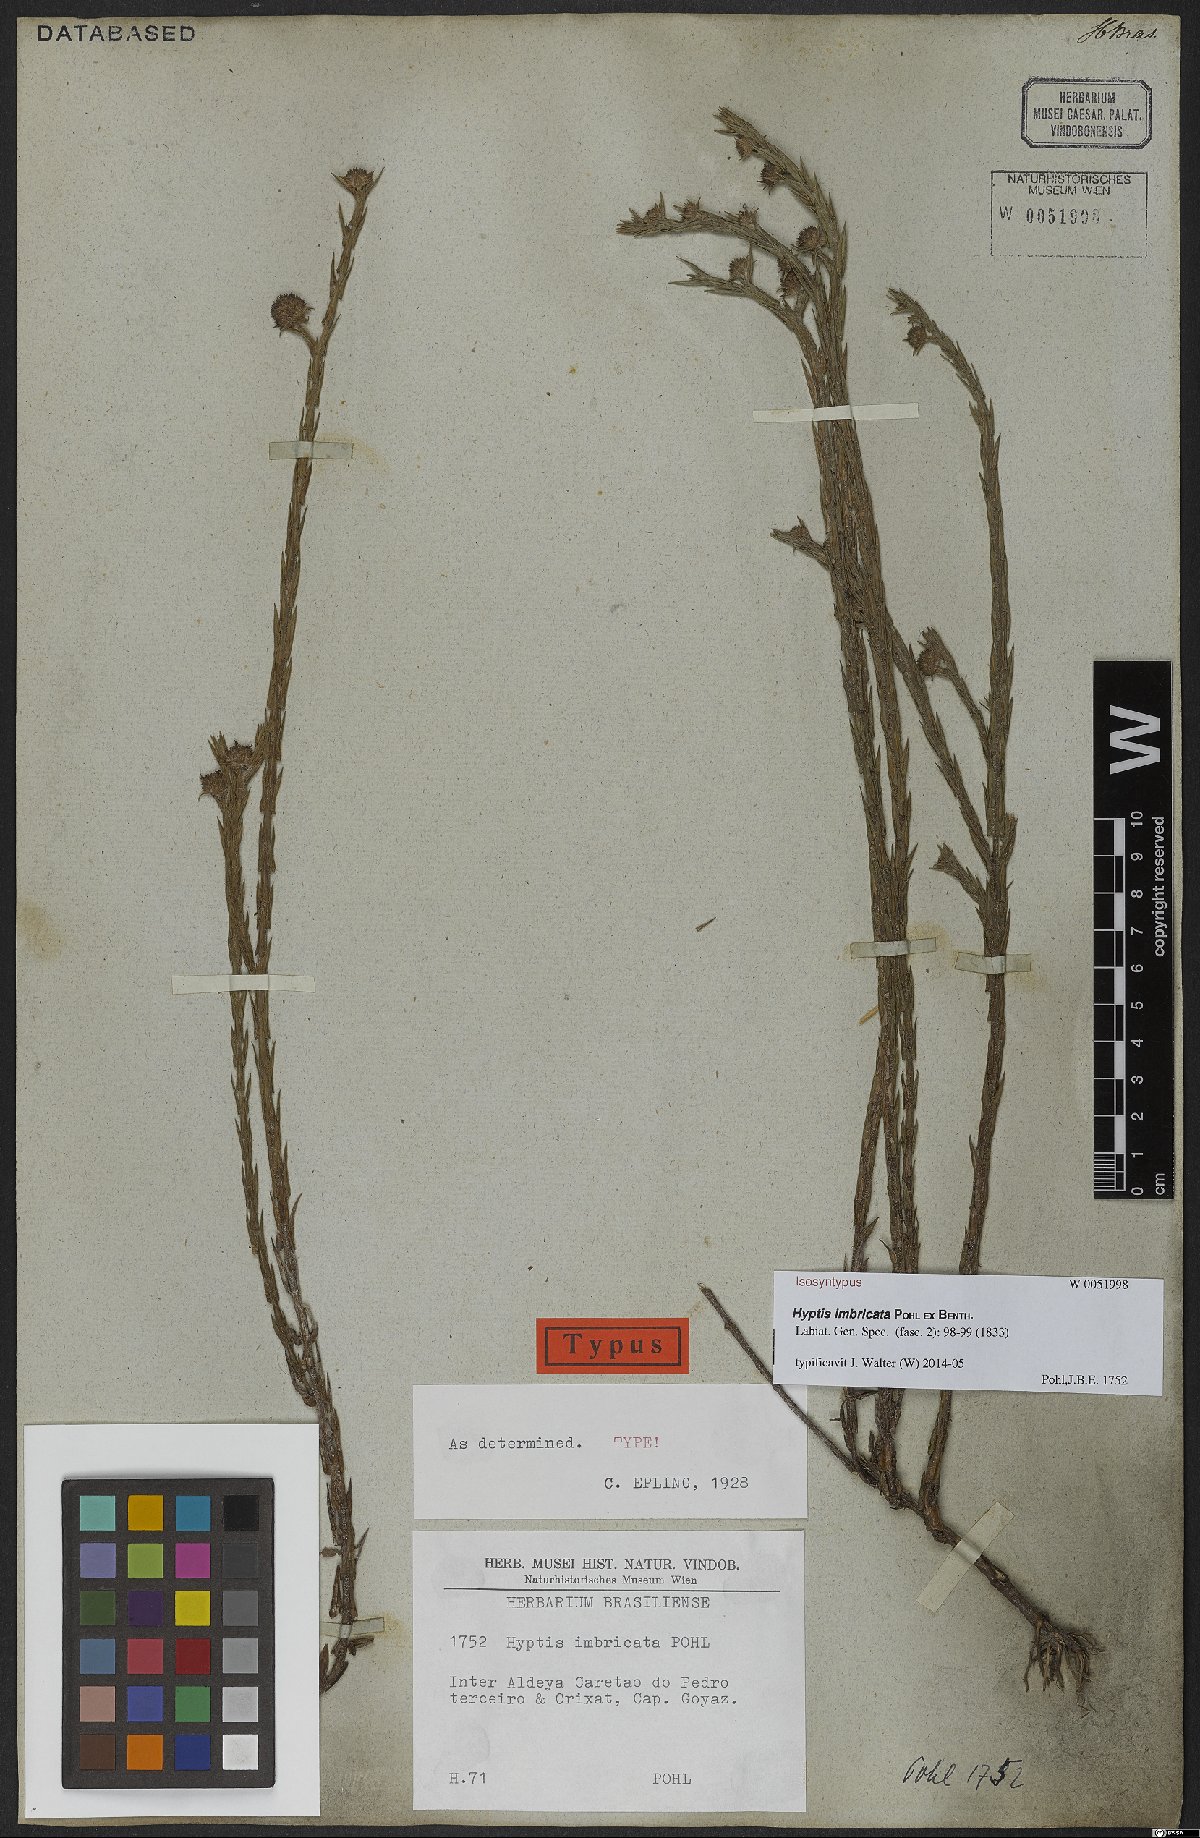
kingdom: Plantae
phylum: Tracheophyta
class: Magnoliopsida
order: Lamiales
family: Lamiaceae
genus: Hyptis
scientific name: Hyptis imbricata
